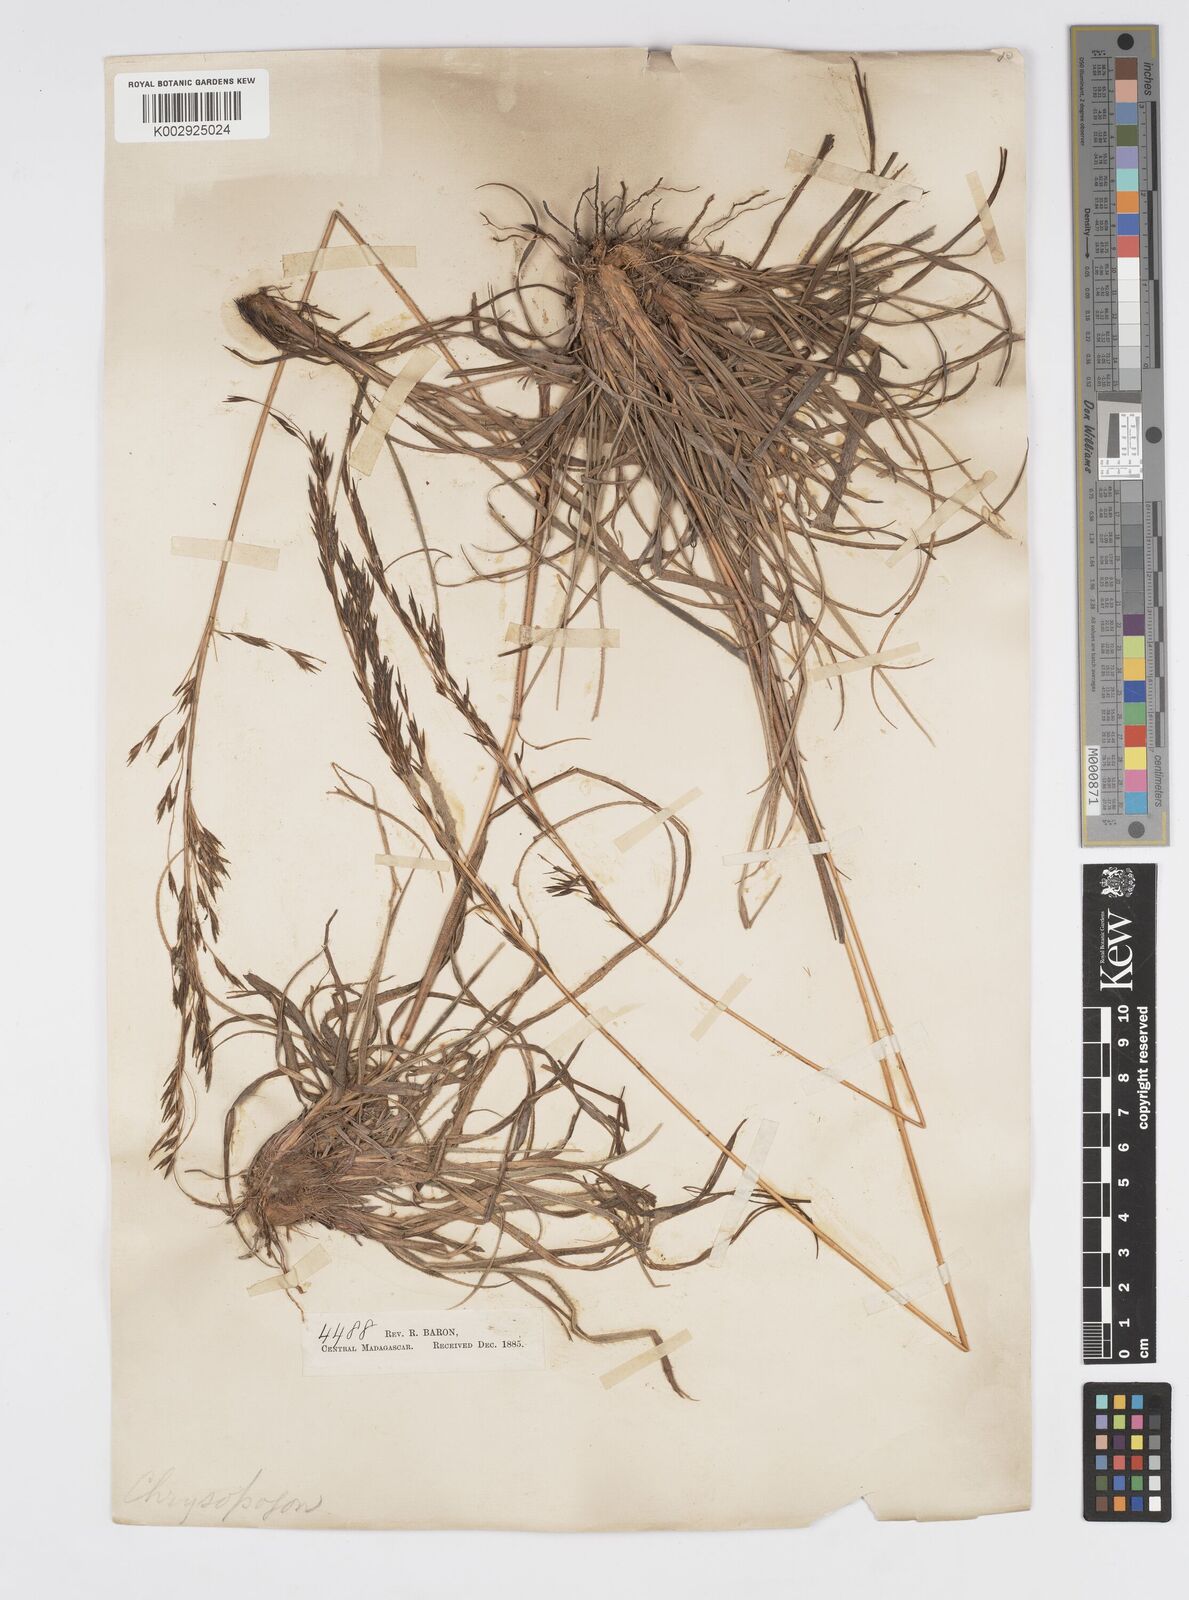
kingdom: Plantae
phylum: Tracheophyta
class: Liliopsida
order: Poales
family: Poaceae
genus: Loudetia
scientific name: Loudetia
